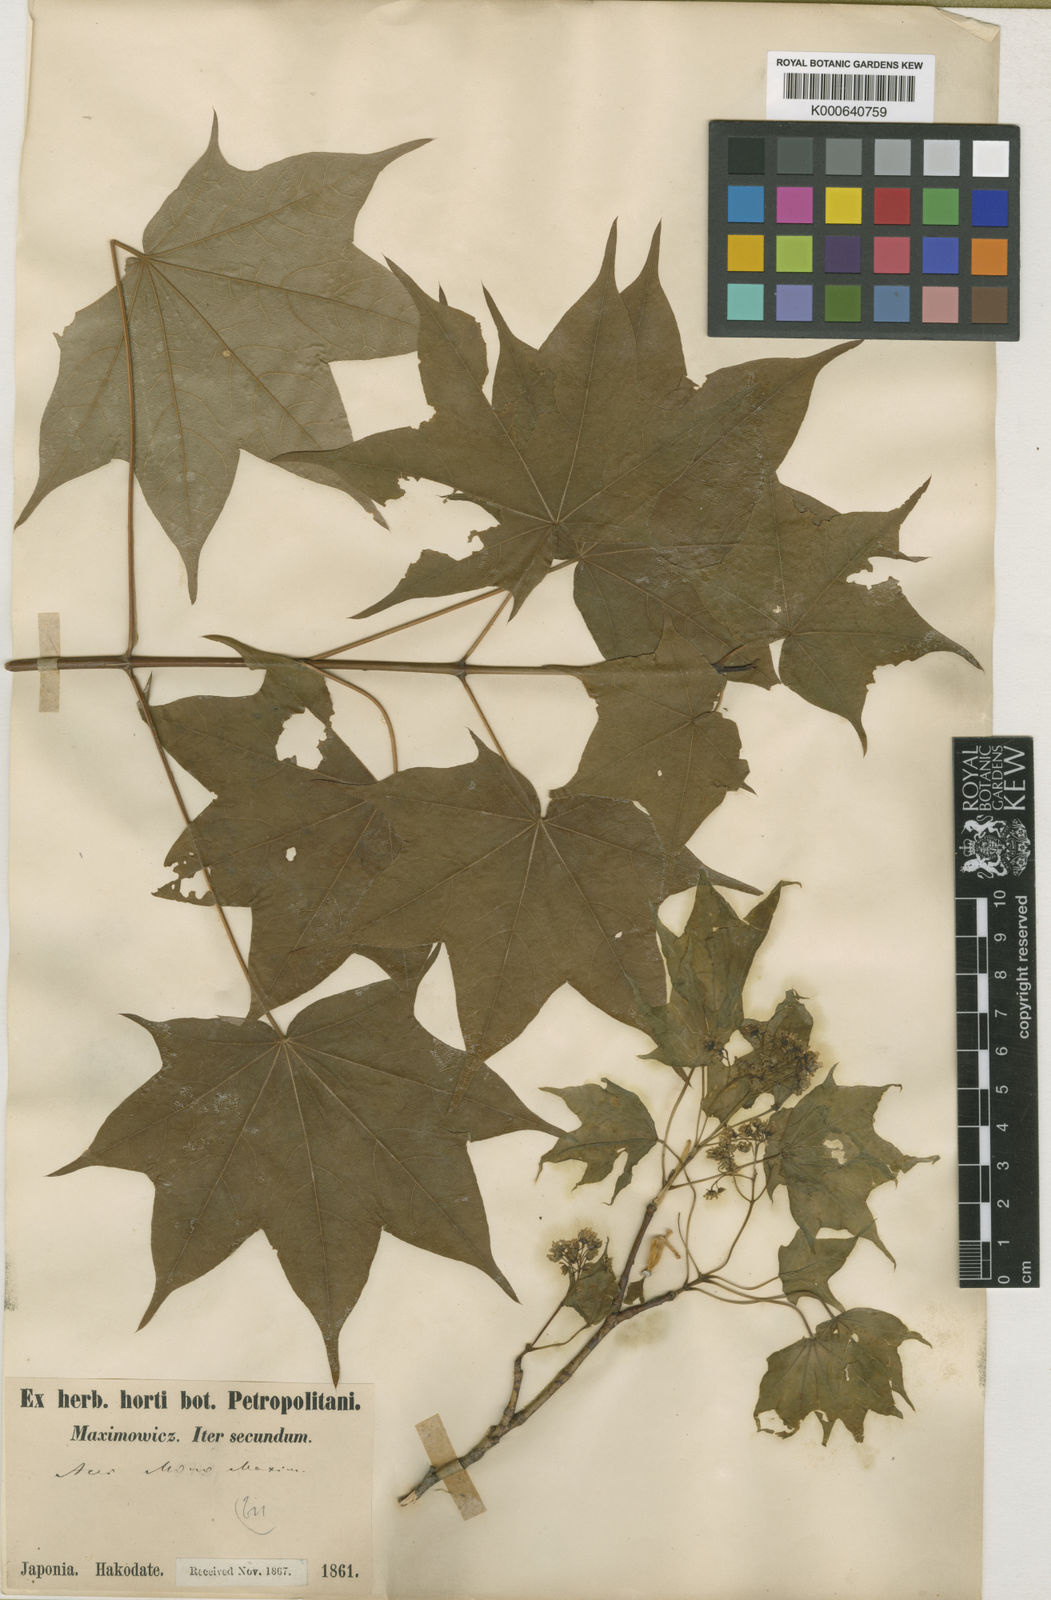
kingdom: Plantae
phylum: Tracheophyta
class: Magnoliopsida
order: Sapindales
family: Sapindaceae
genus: Acer
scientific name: Acer pictum
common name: The painted maple
